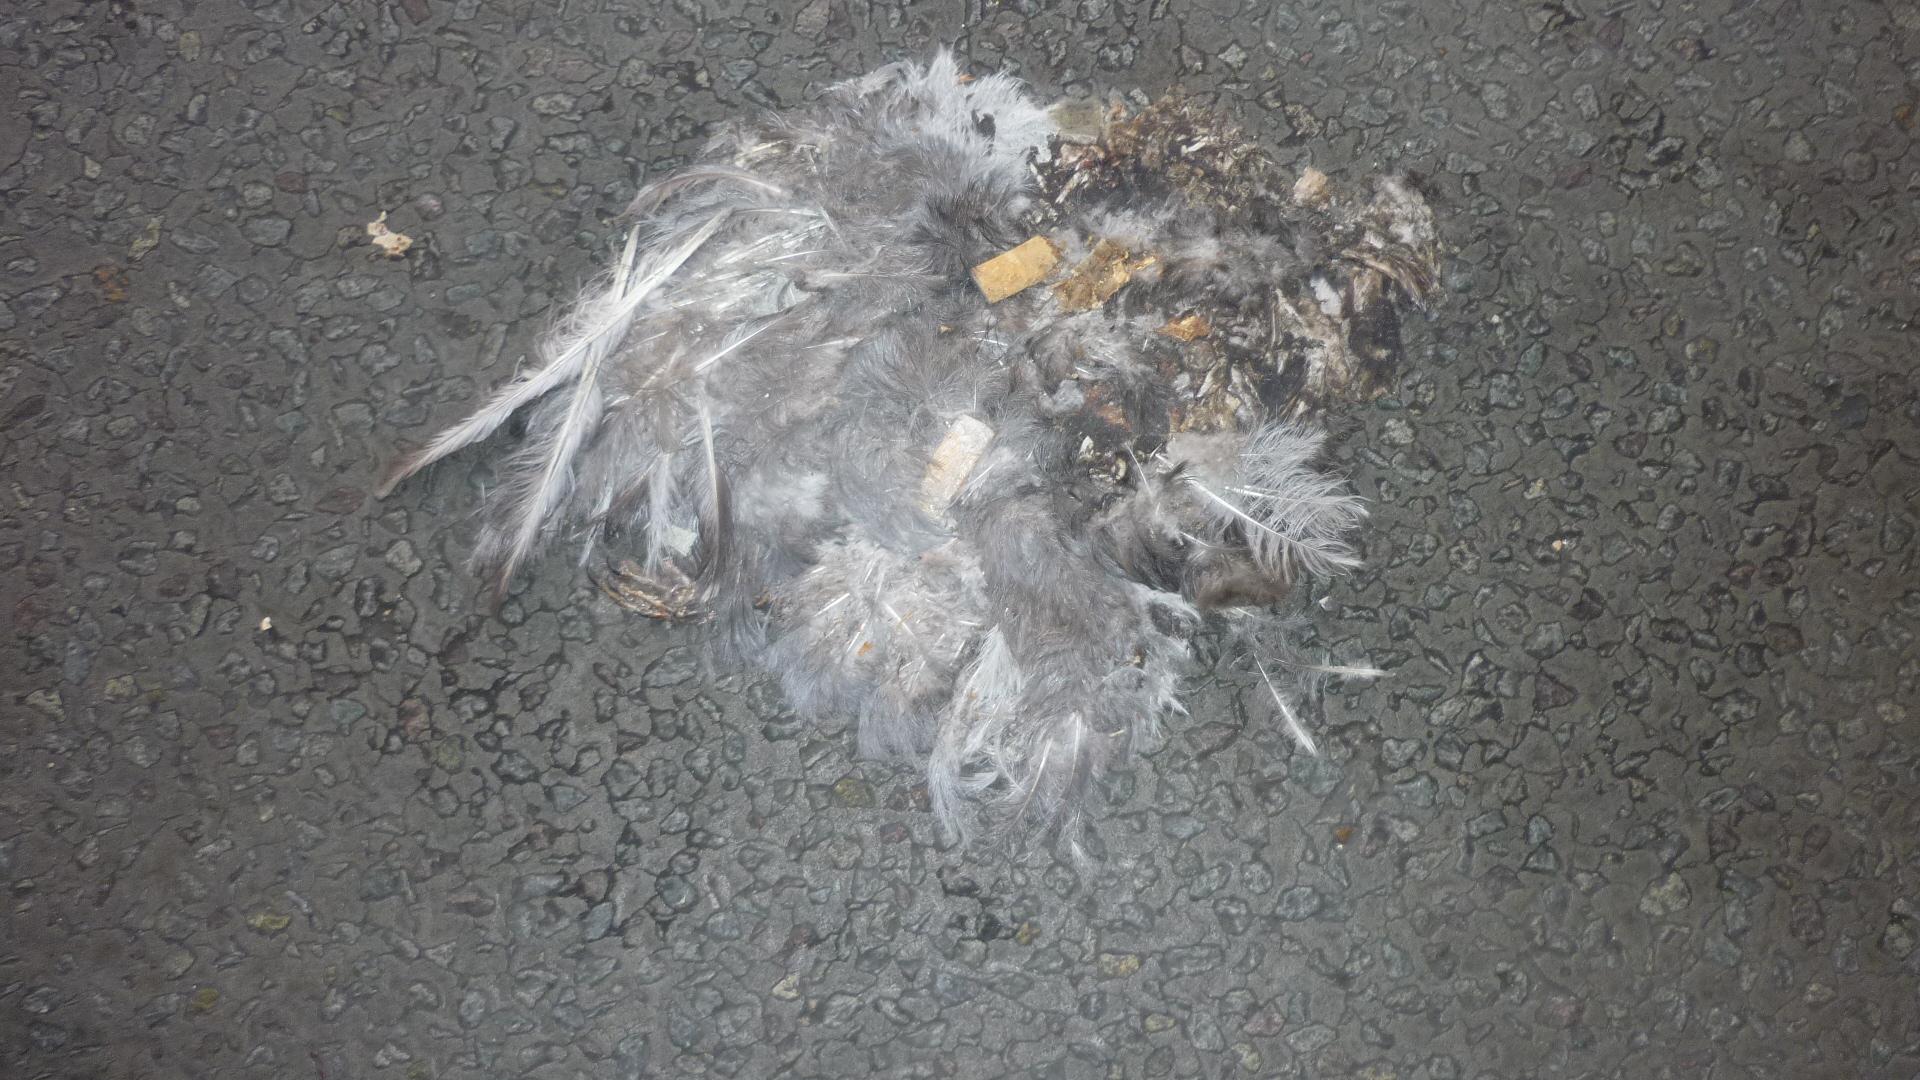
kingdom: Animalia
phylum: Chordata
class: Aves
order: Columbiformes
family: Columbidae
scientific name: Columbidae
